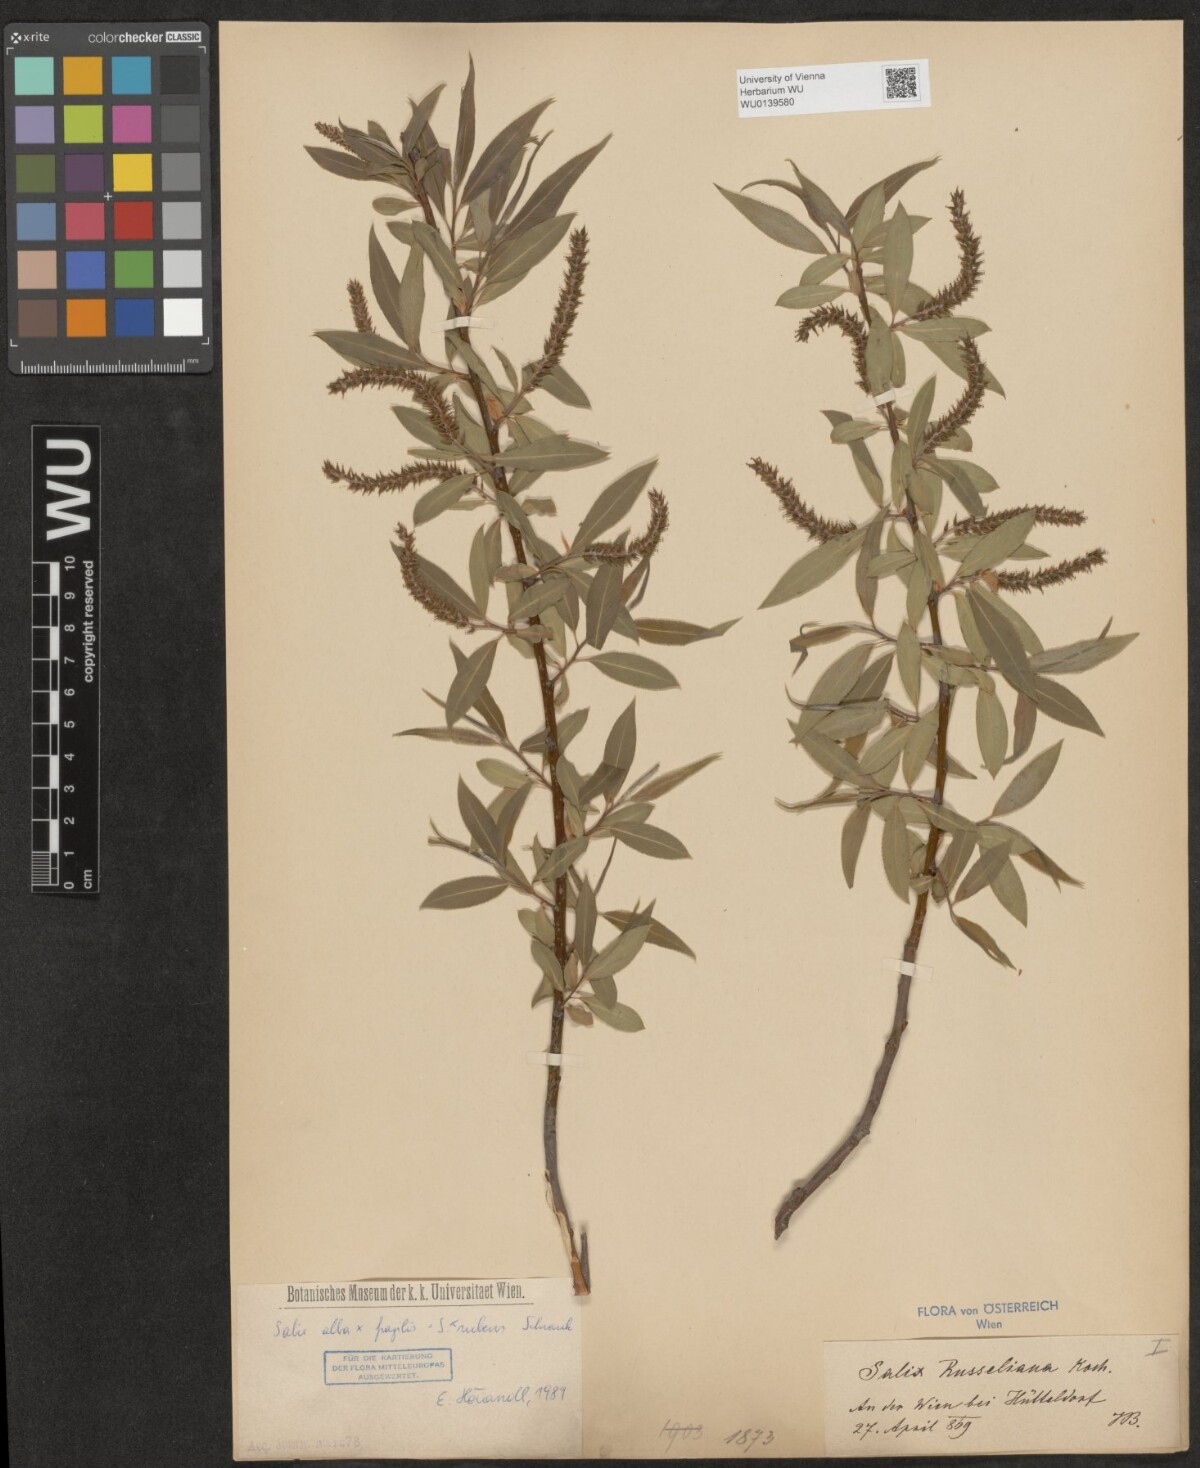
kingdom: Plantae
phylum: Tracheophyta
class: Magnoliopsida
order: Malpighiales
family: Salicaceae
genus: Salix
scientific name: Salix rubens
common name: Hybrid crack willow
